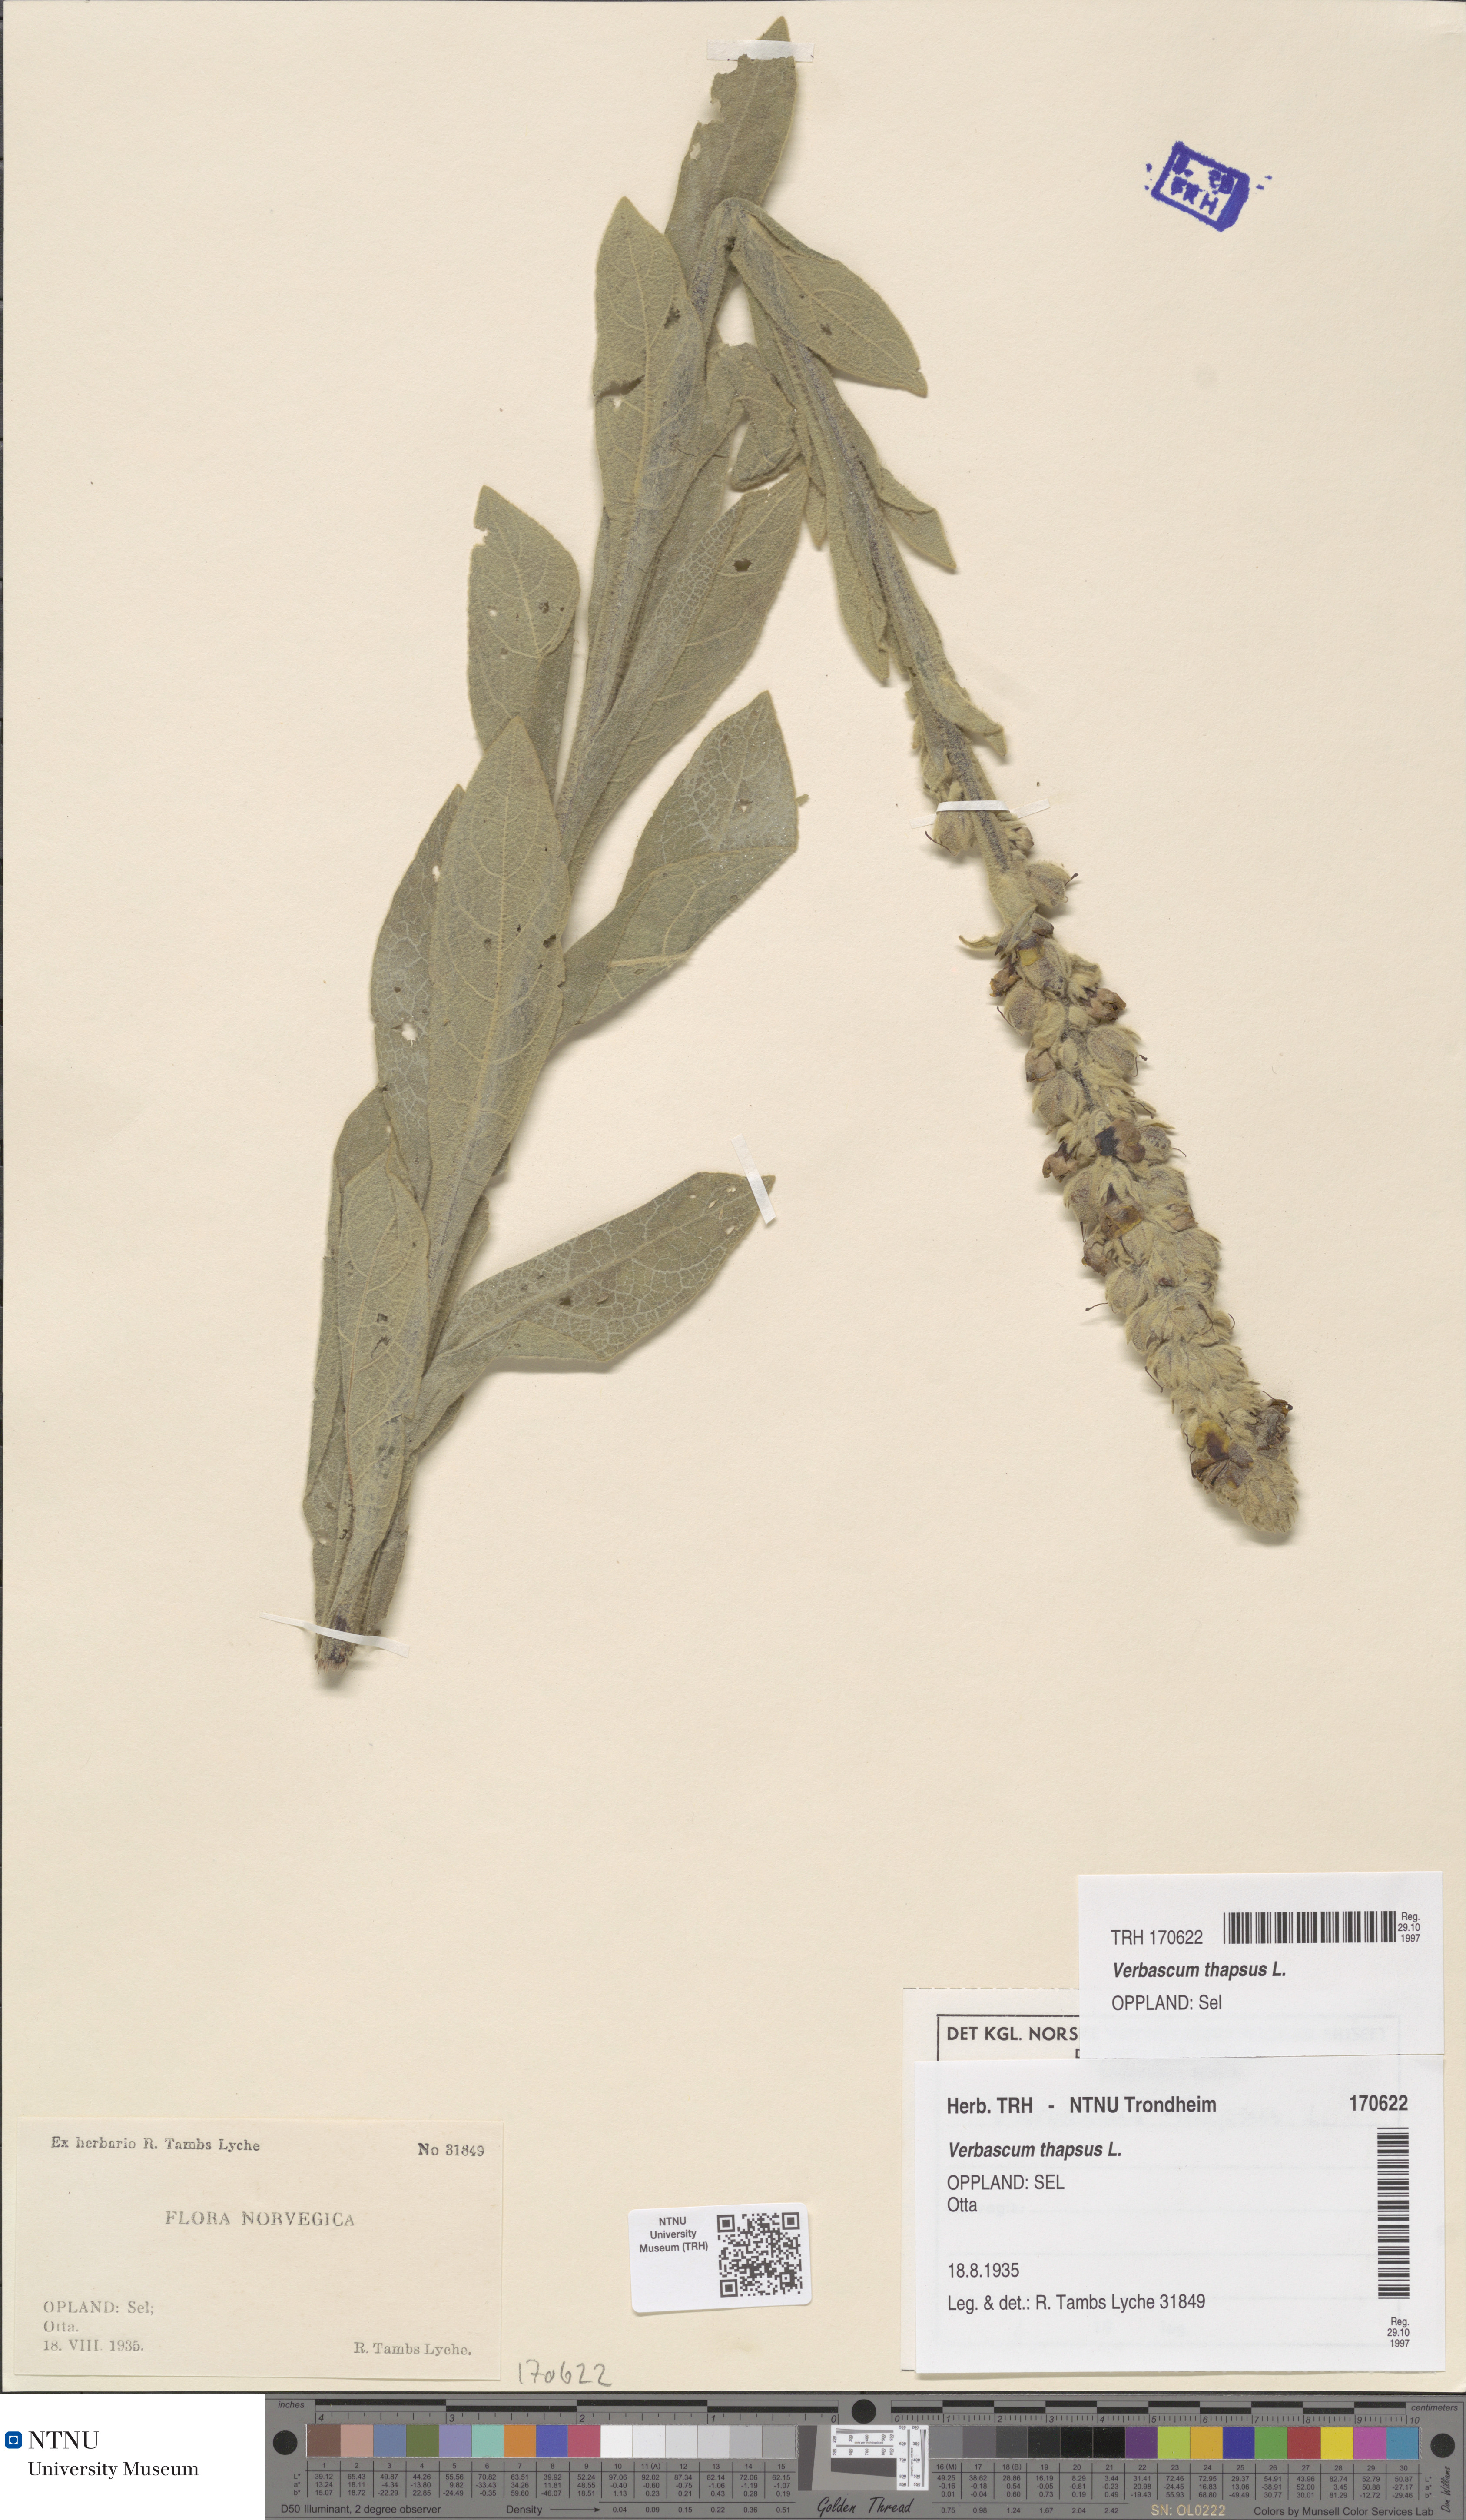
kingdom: Plantae
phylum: Tracheophyta
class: Magnoliopsida
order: Lamiales
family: Scrophulariaceae
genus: Verbascum
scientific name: Verbascum thapsus
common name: Common mullein
